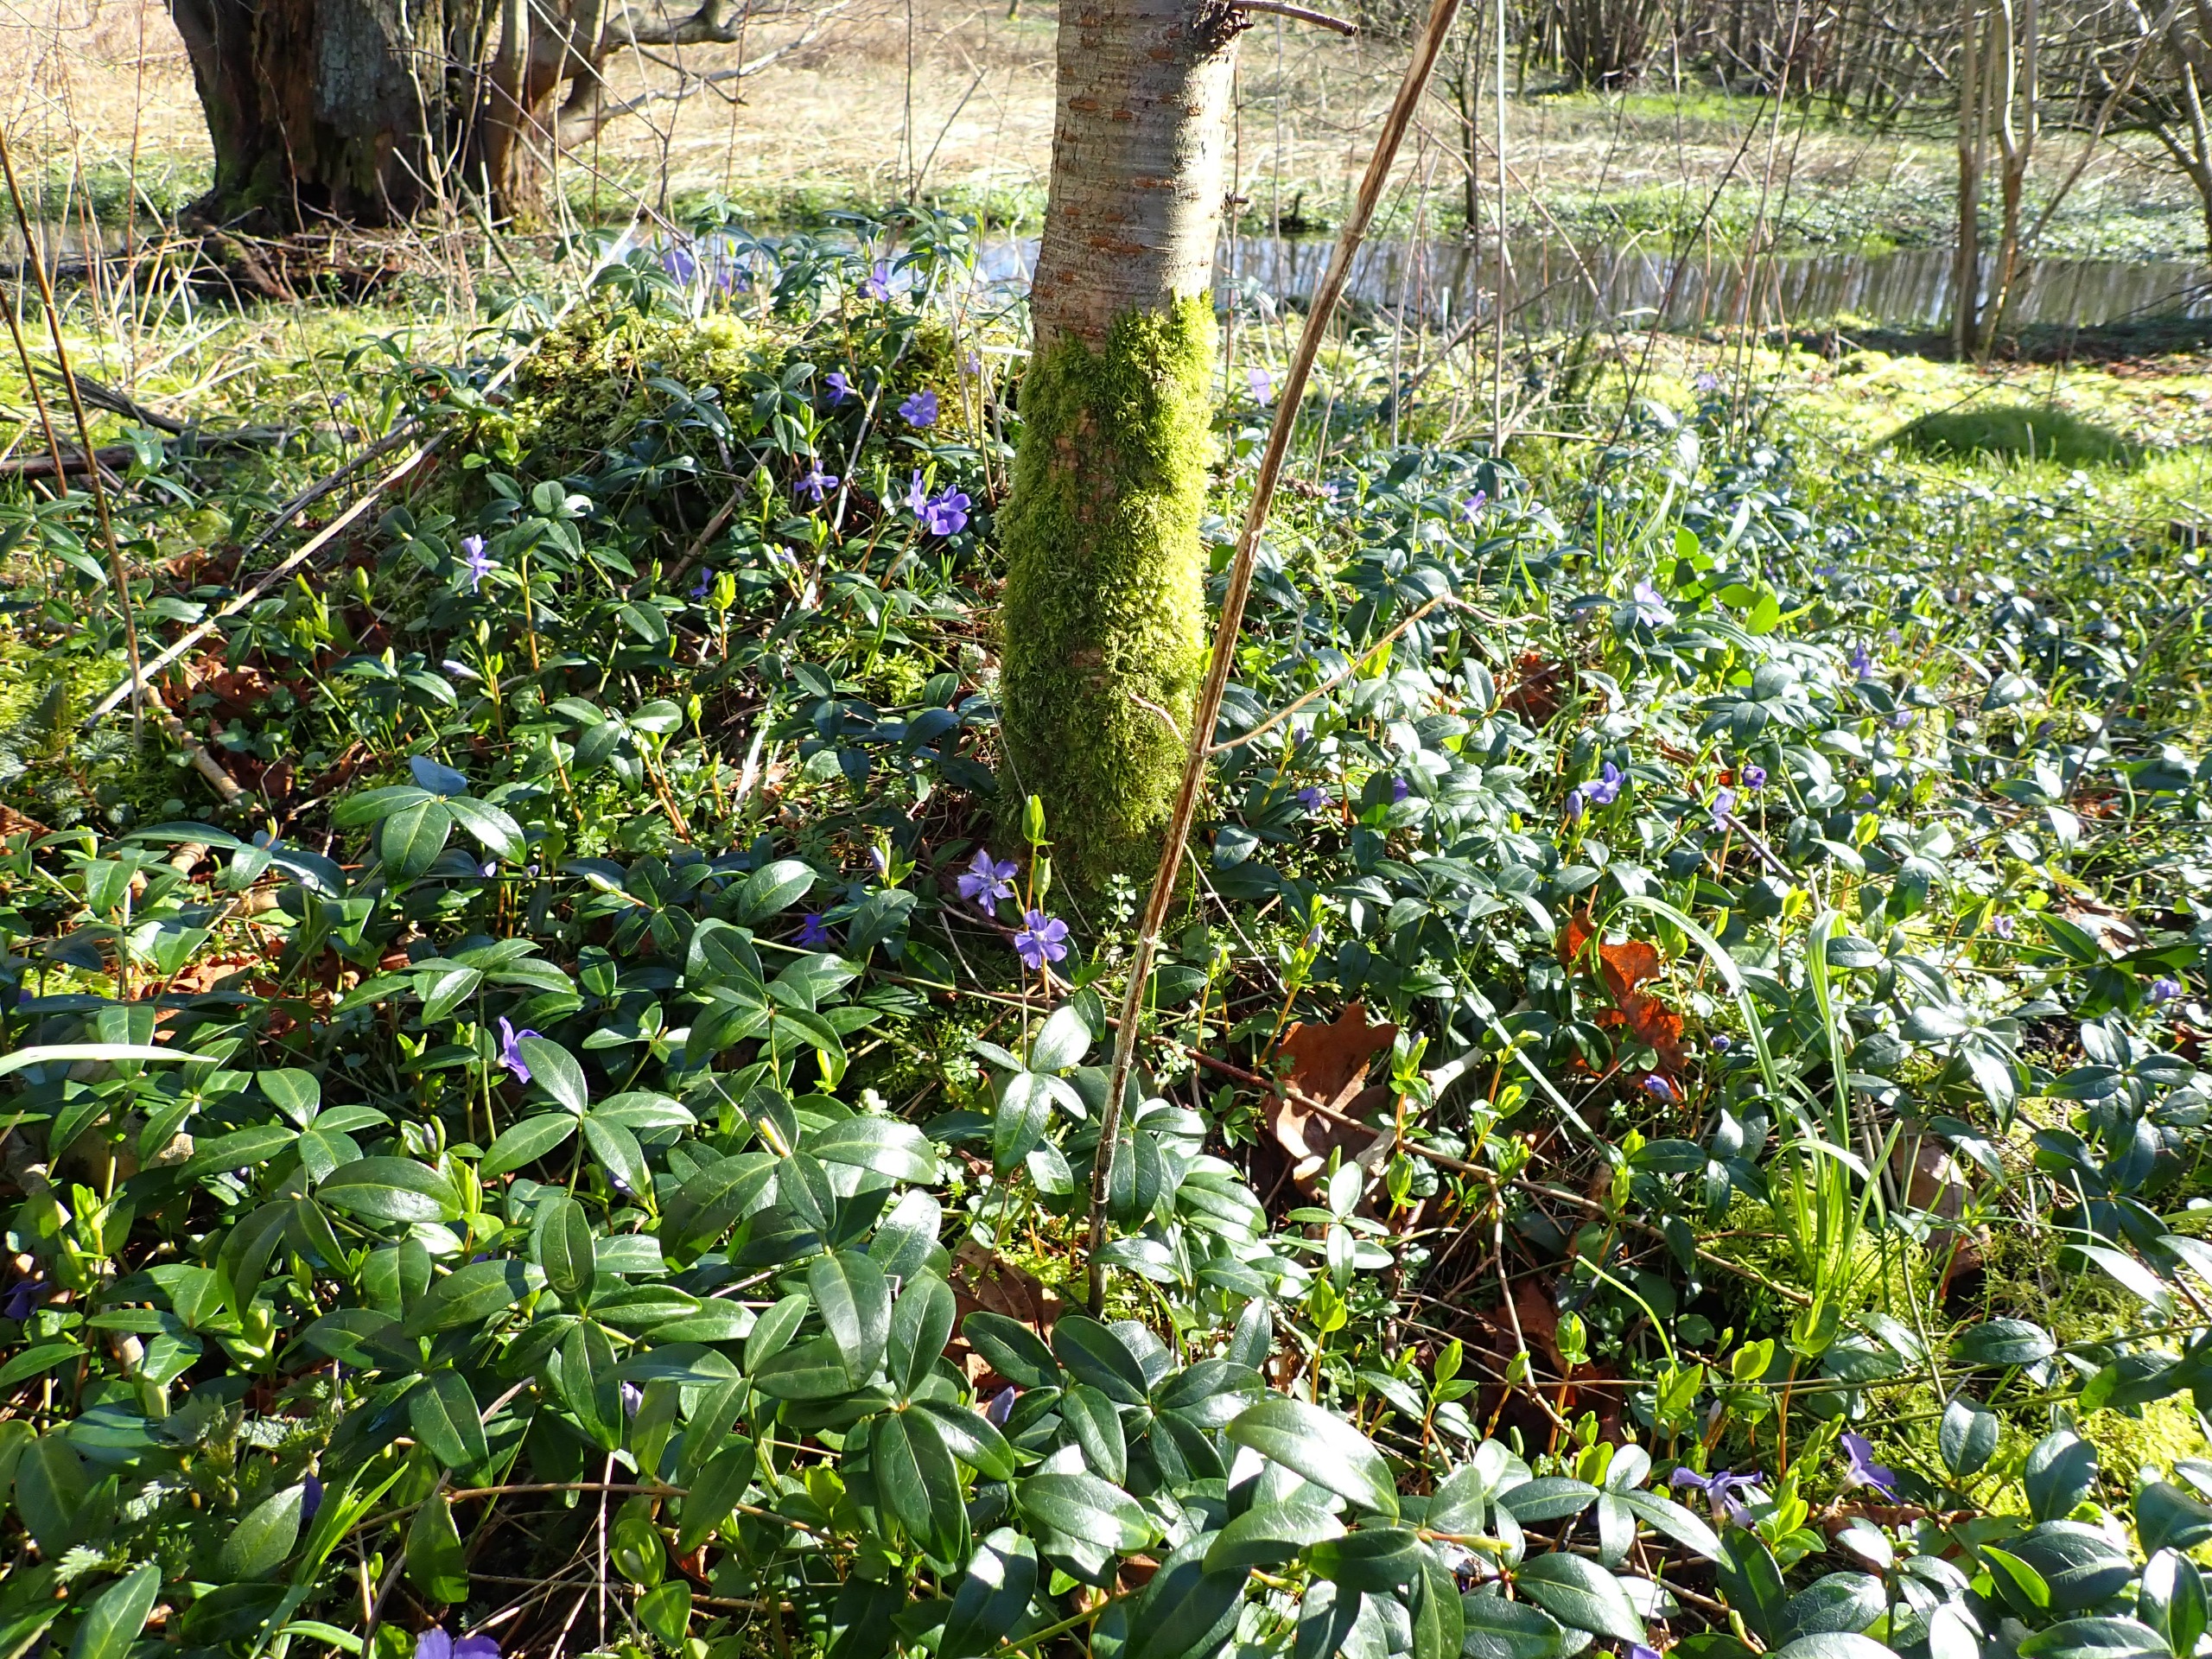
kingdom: Plantae
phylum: Tracheophyta
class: Magnoliopsida
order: Gentianales
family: Apocynaceae
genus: Vinca
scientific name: Vinca minor
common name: Liden singrøn
